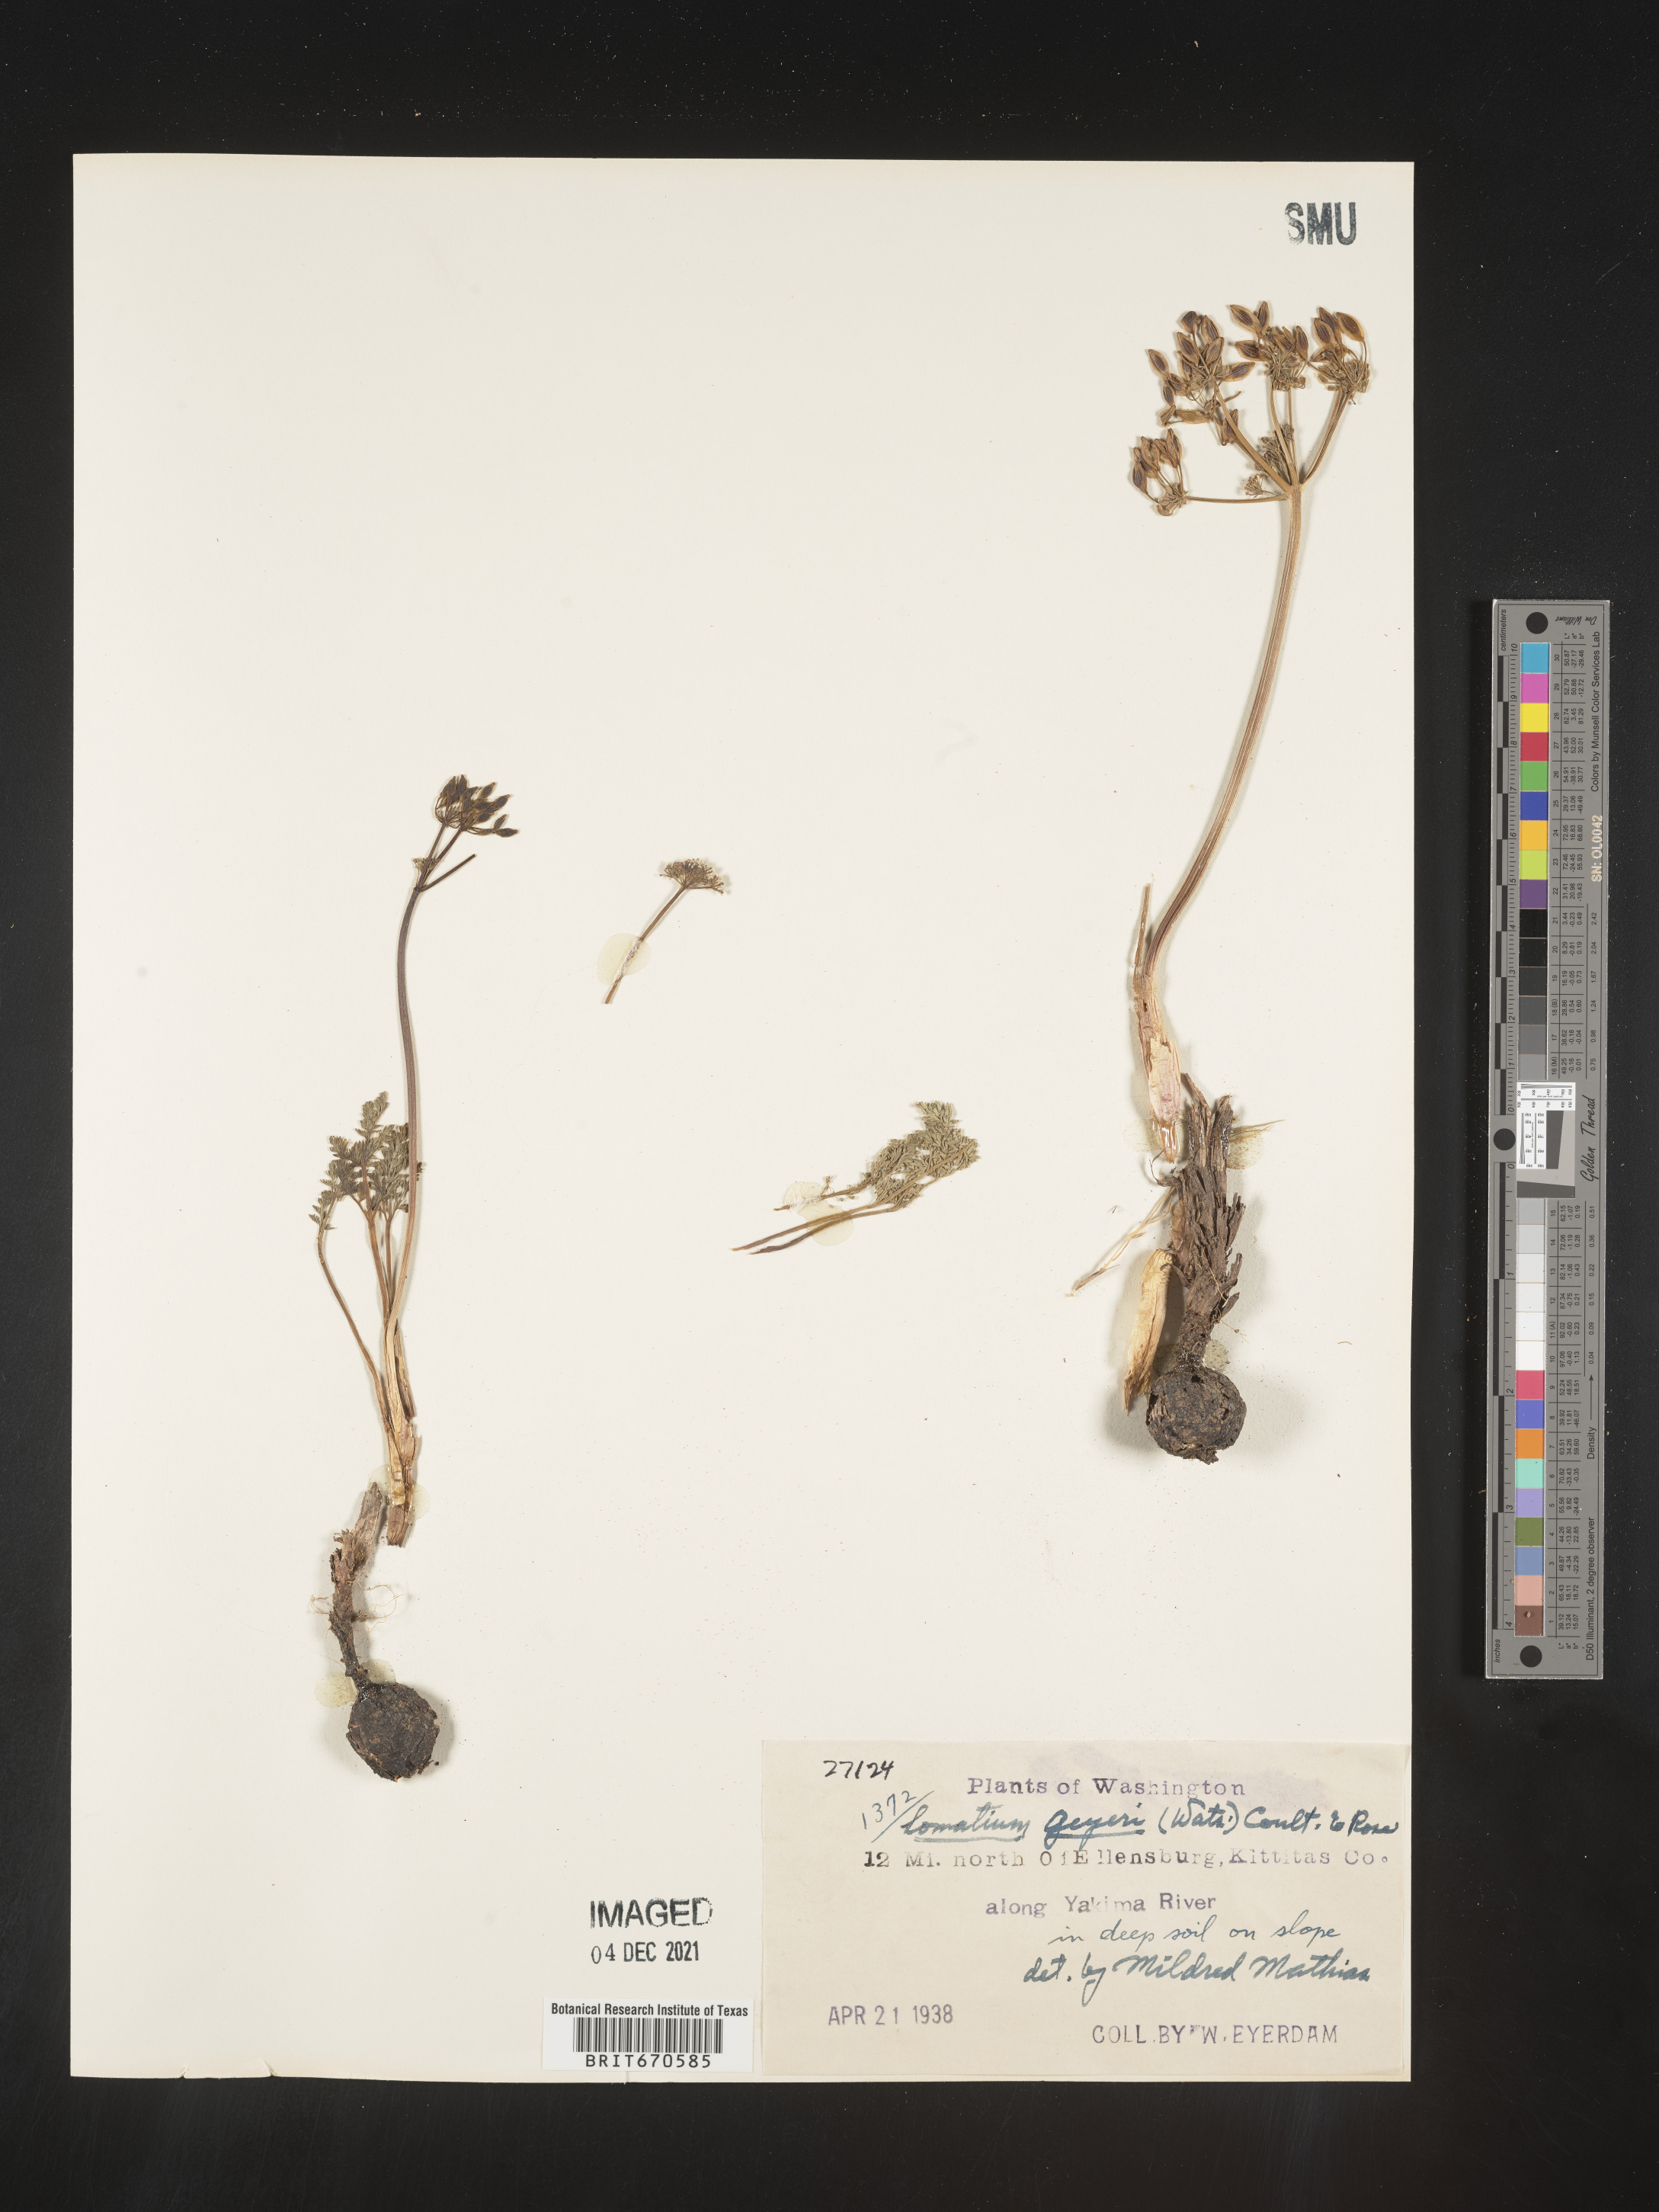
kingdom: Plantae
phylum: Tracheophyta
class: Magnoliopsida
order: Apiales
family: Apiaceae
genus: Lomatium
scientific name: Lomatium geyeri
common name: Geyer's biscuitroot
